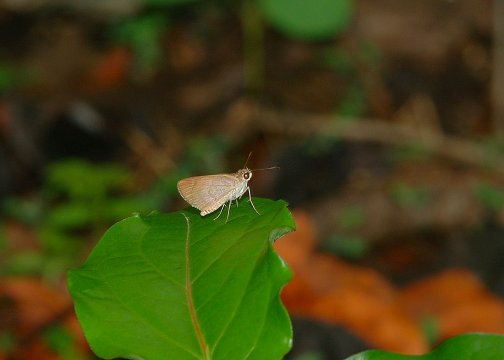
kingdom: Animalia
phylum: Arthropoda
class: Insecta
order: Lepidoptera
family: Hesperiidae
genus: Thargella
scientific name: Thargella caura
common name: Sipariana Skipper
